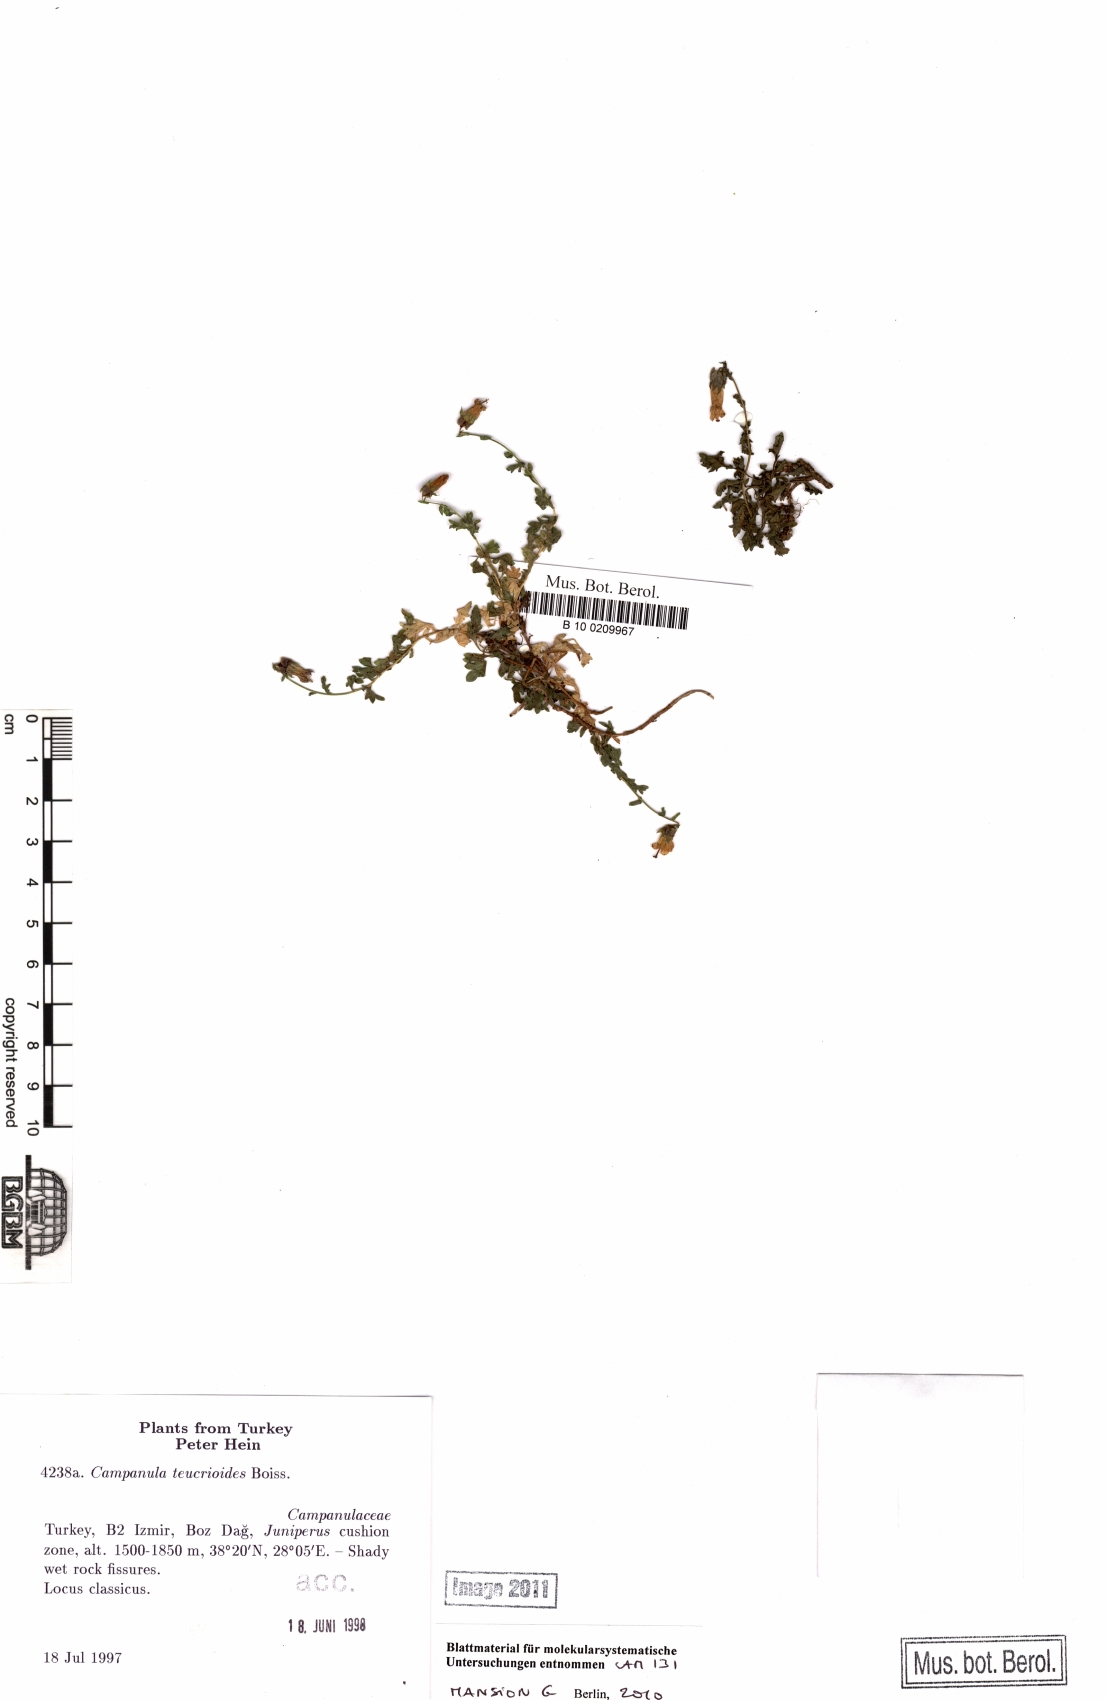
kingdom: Plantae
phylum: Tracheophyta
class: Magnoliopsida
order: Asterales
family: Campanulaceae
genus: Campanula
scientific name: Campanula teucrioides
